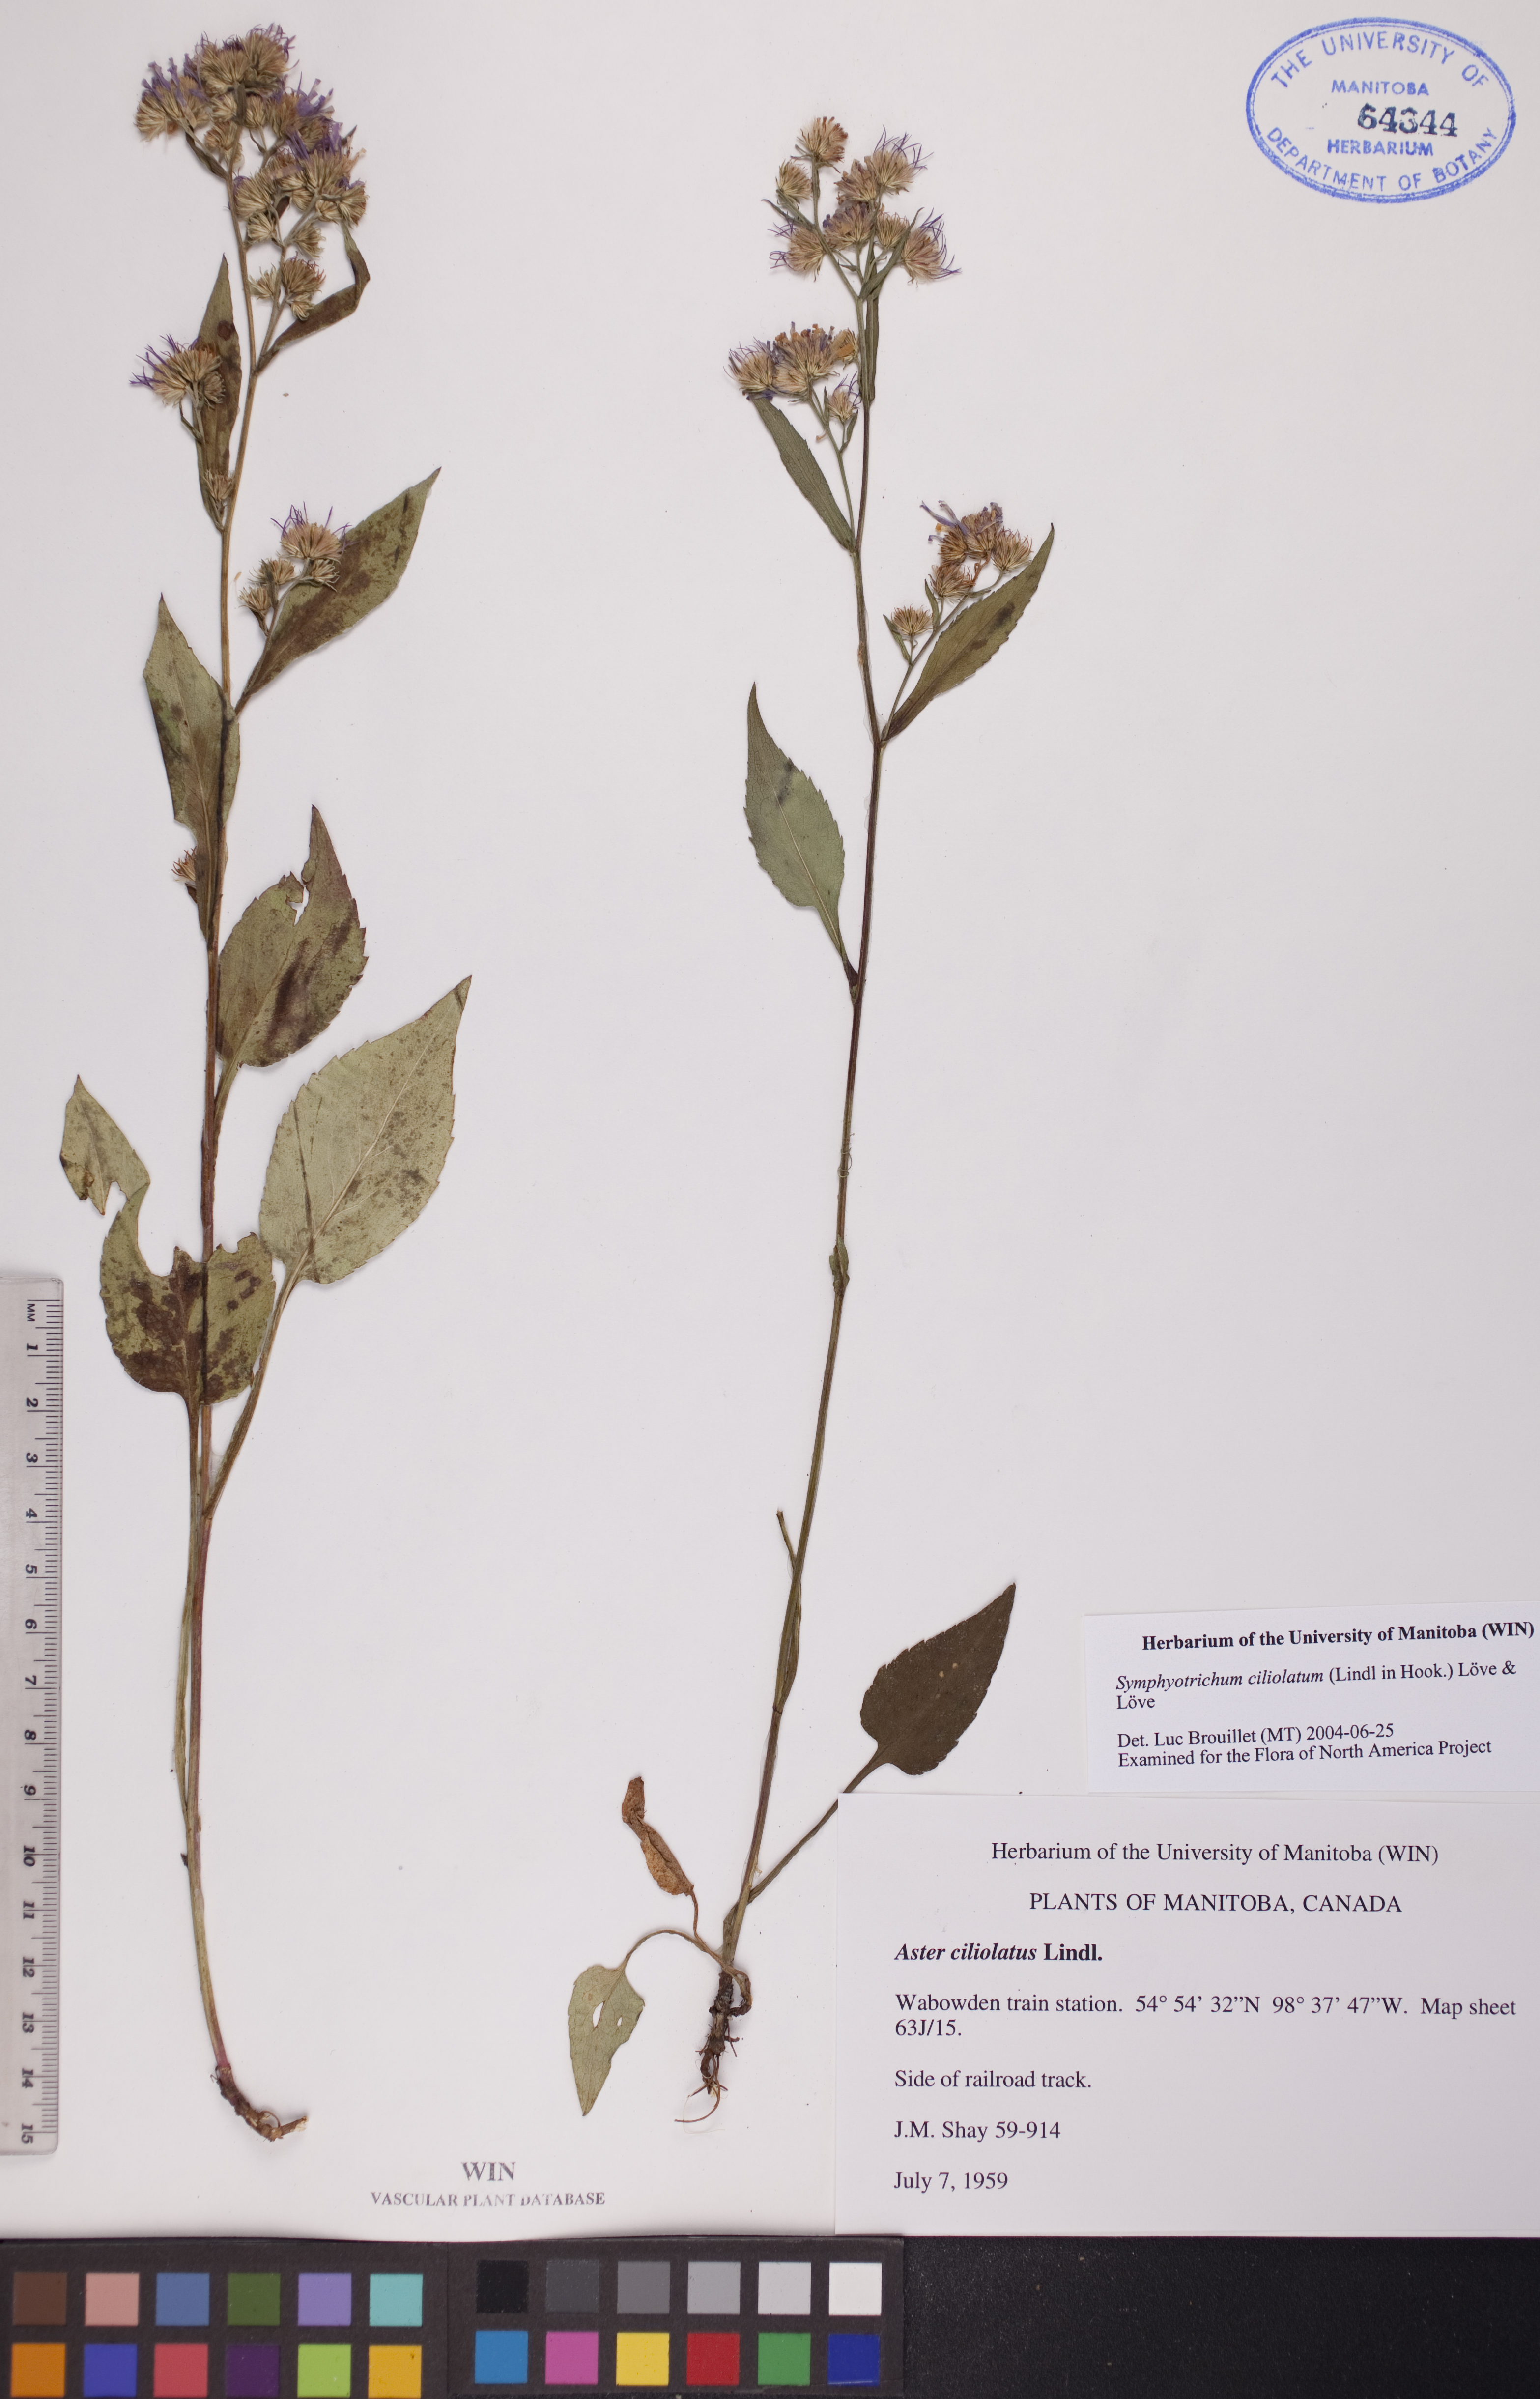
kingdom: Plantae
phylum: Tracheophyta
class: Magnoliopsida
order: Asterales
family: Asteraceae
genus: Symphyotrichum
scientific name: Symphyotrichum ciliolatum
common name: Fringed blue aster
